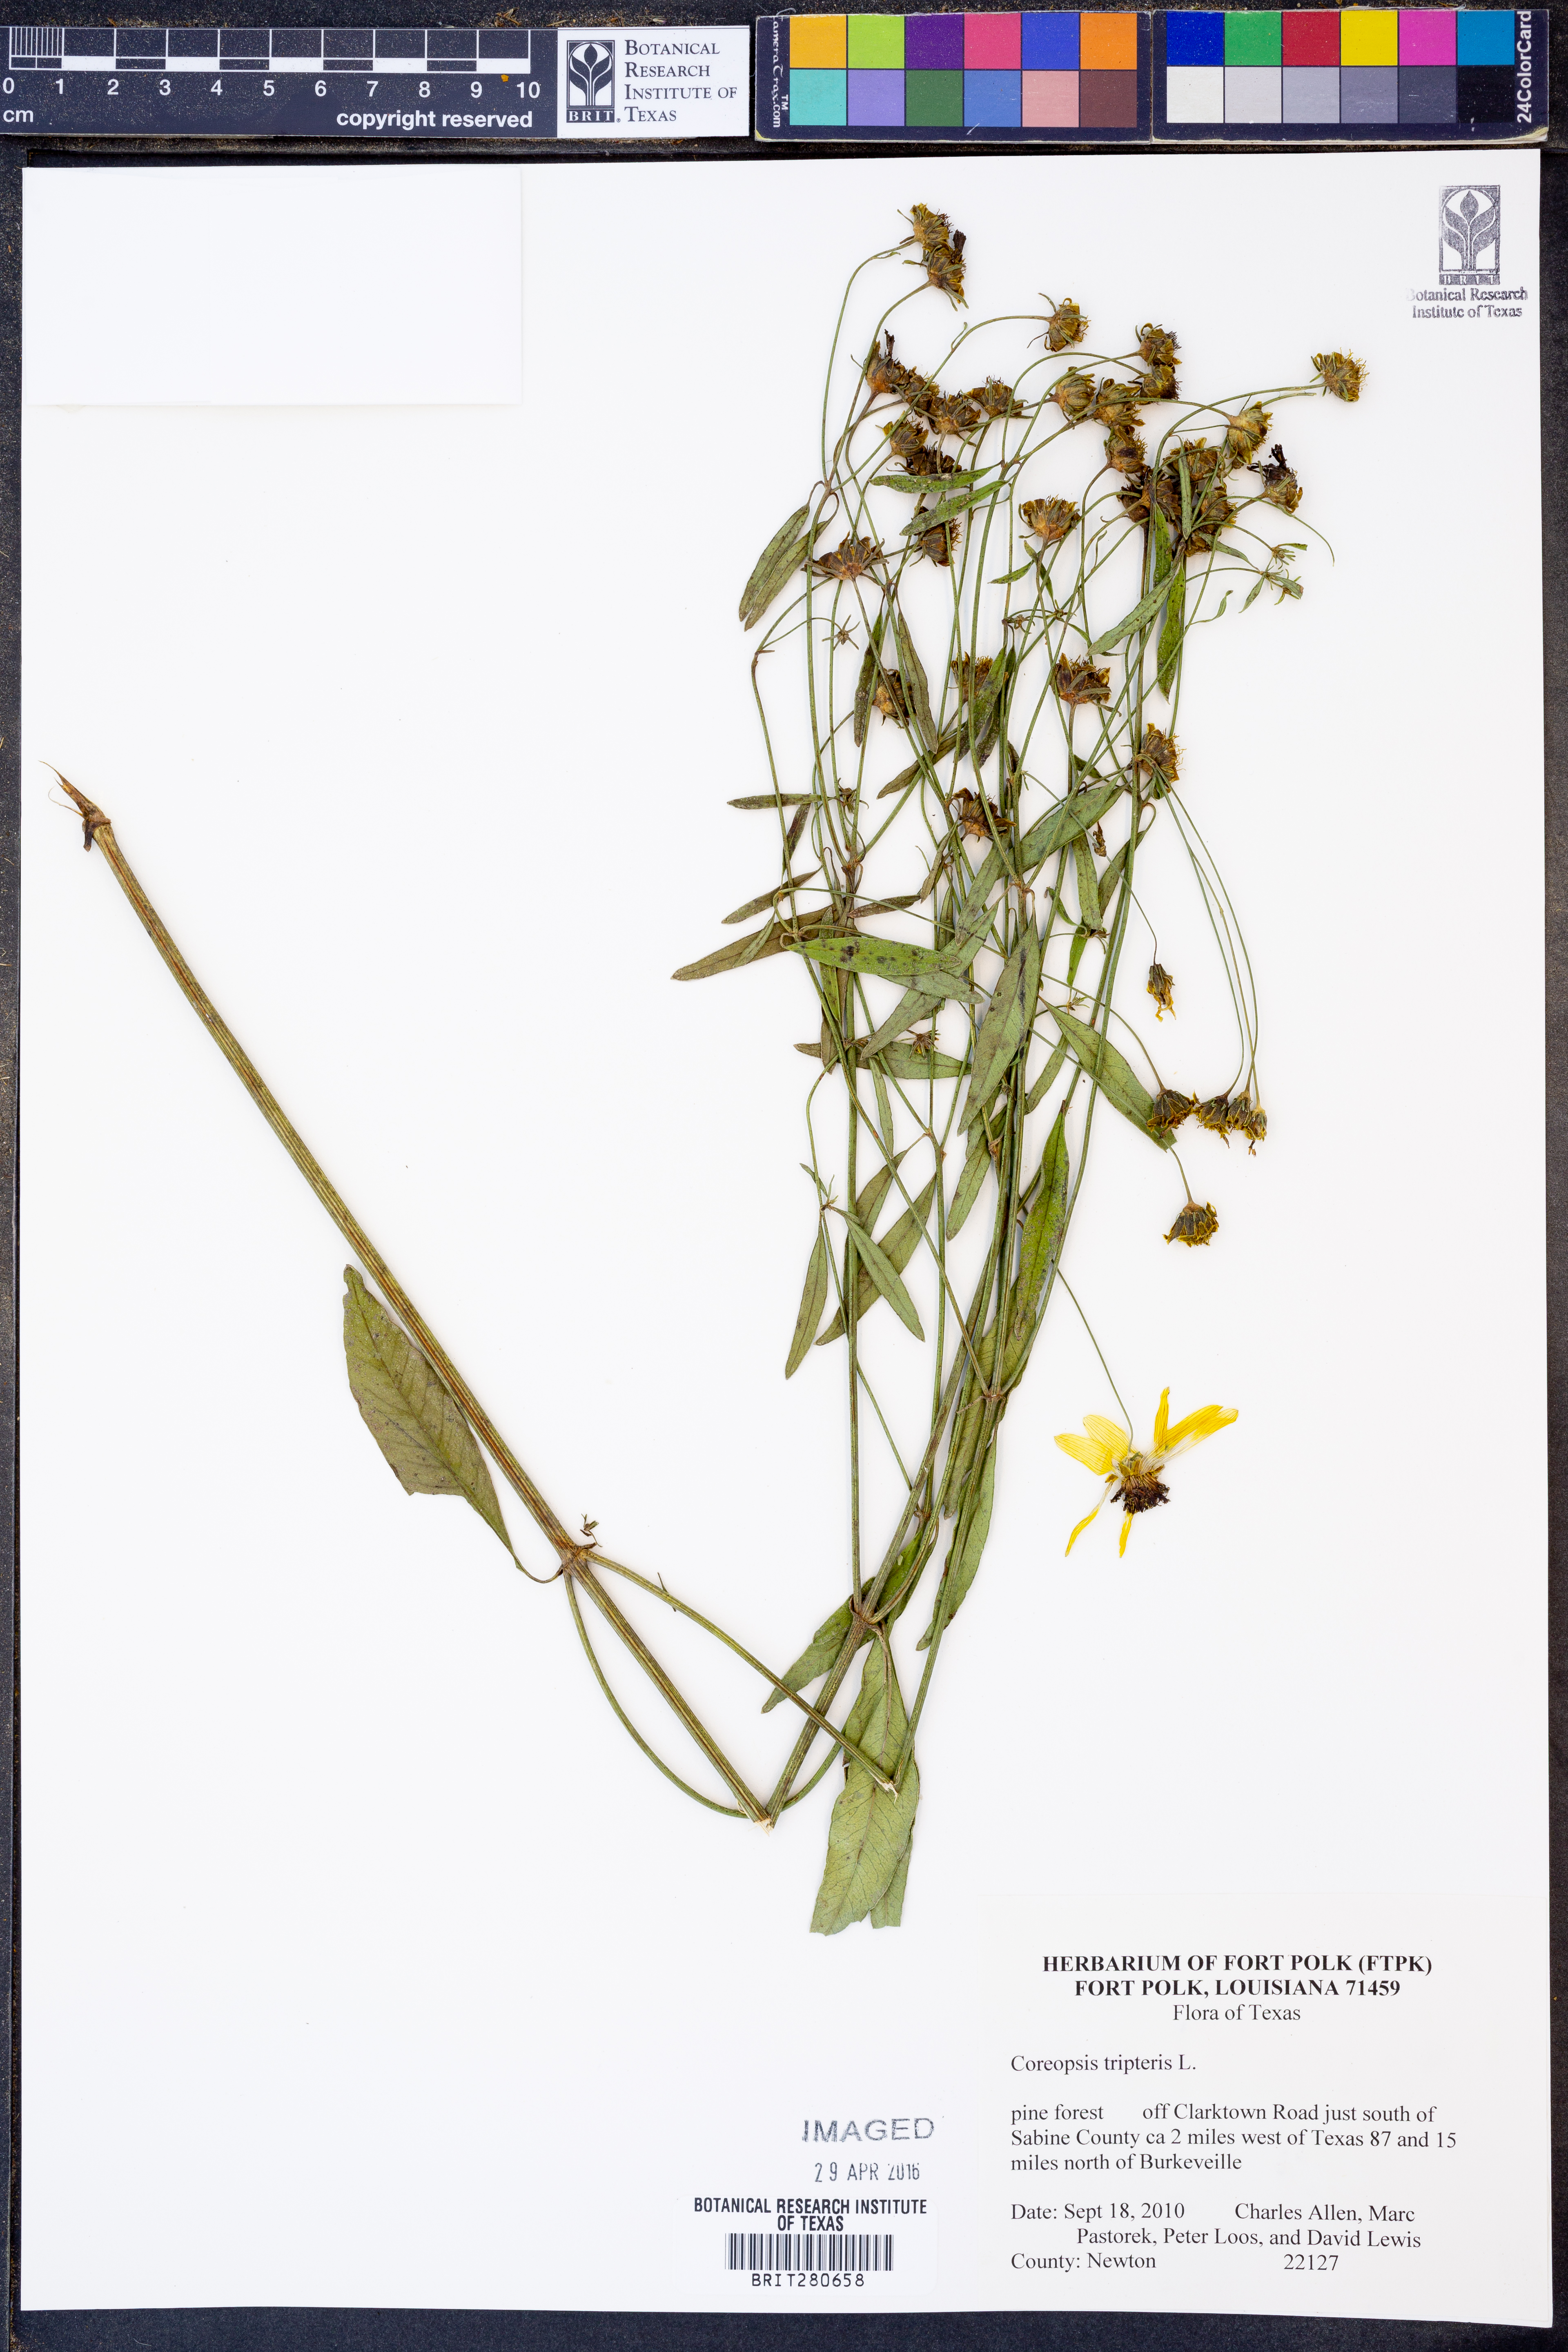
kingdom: Plantae
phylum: Tracheophyta
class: Magnoliopsida
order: Asterales
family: Asteraceae
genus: Coreopsis
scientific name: Coreopsis tripteris
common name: Tall coreopsis
